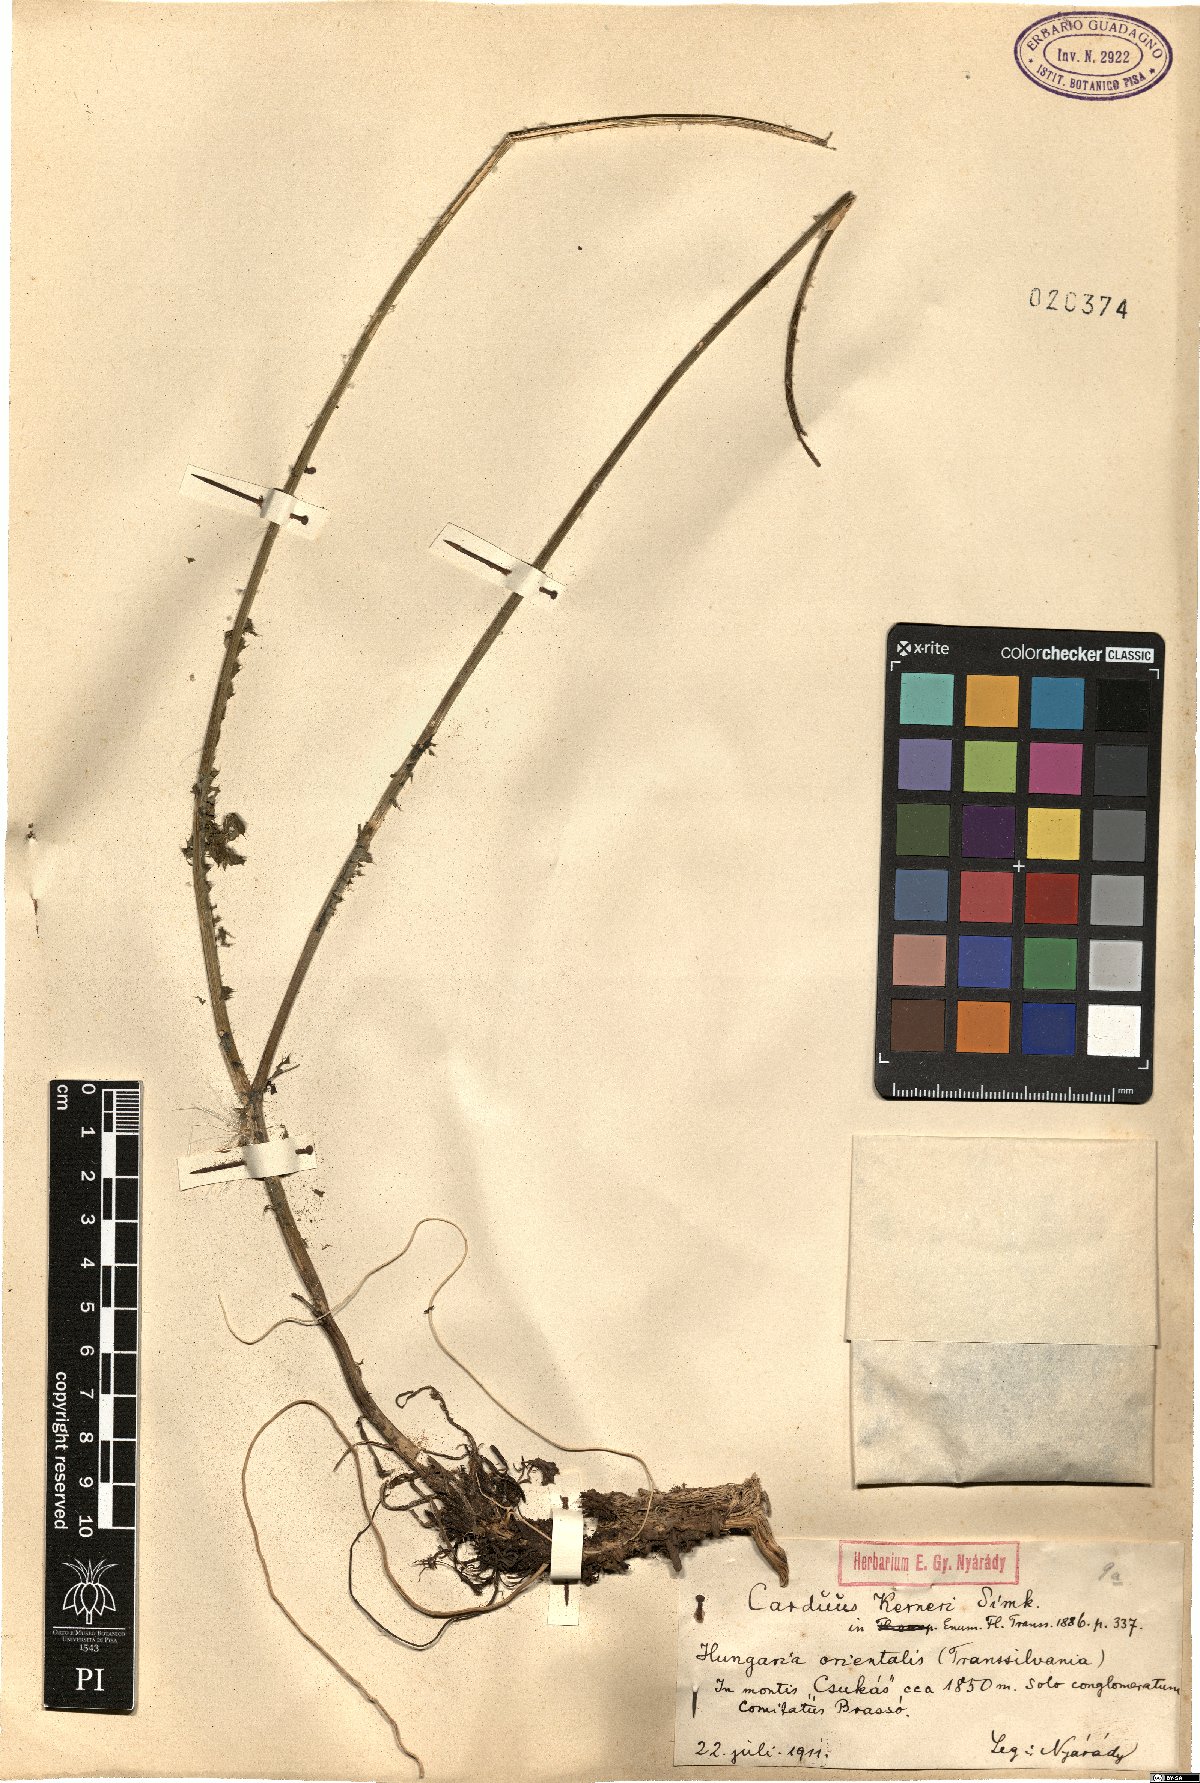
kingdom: Plantae
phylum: Tracheophyta
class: Magnoliopsida
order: Asterales
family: Asteraceae
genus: Carduus
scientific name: Carduus kerneri
